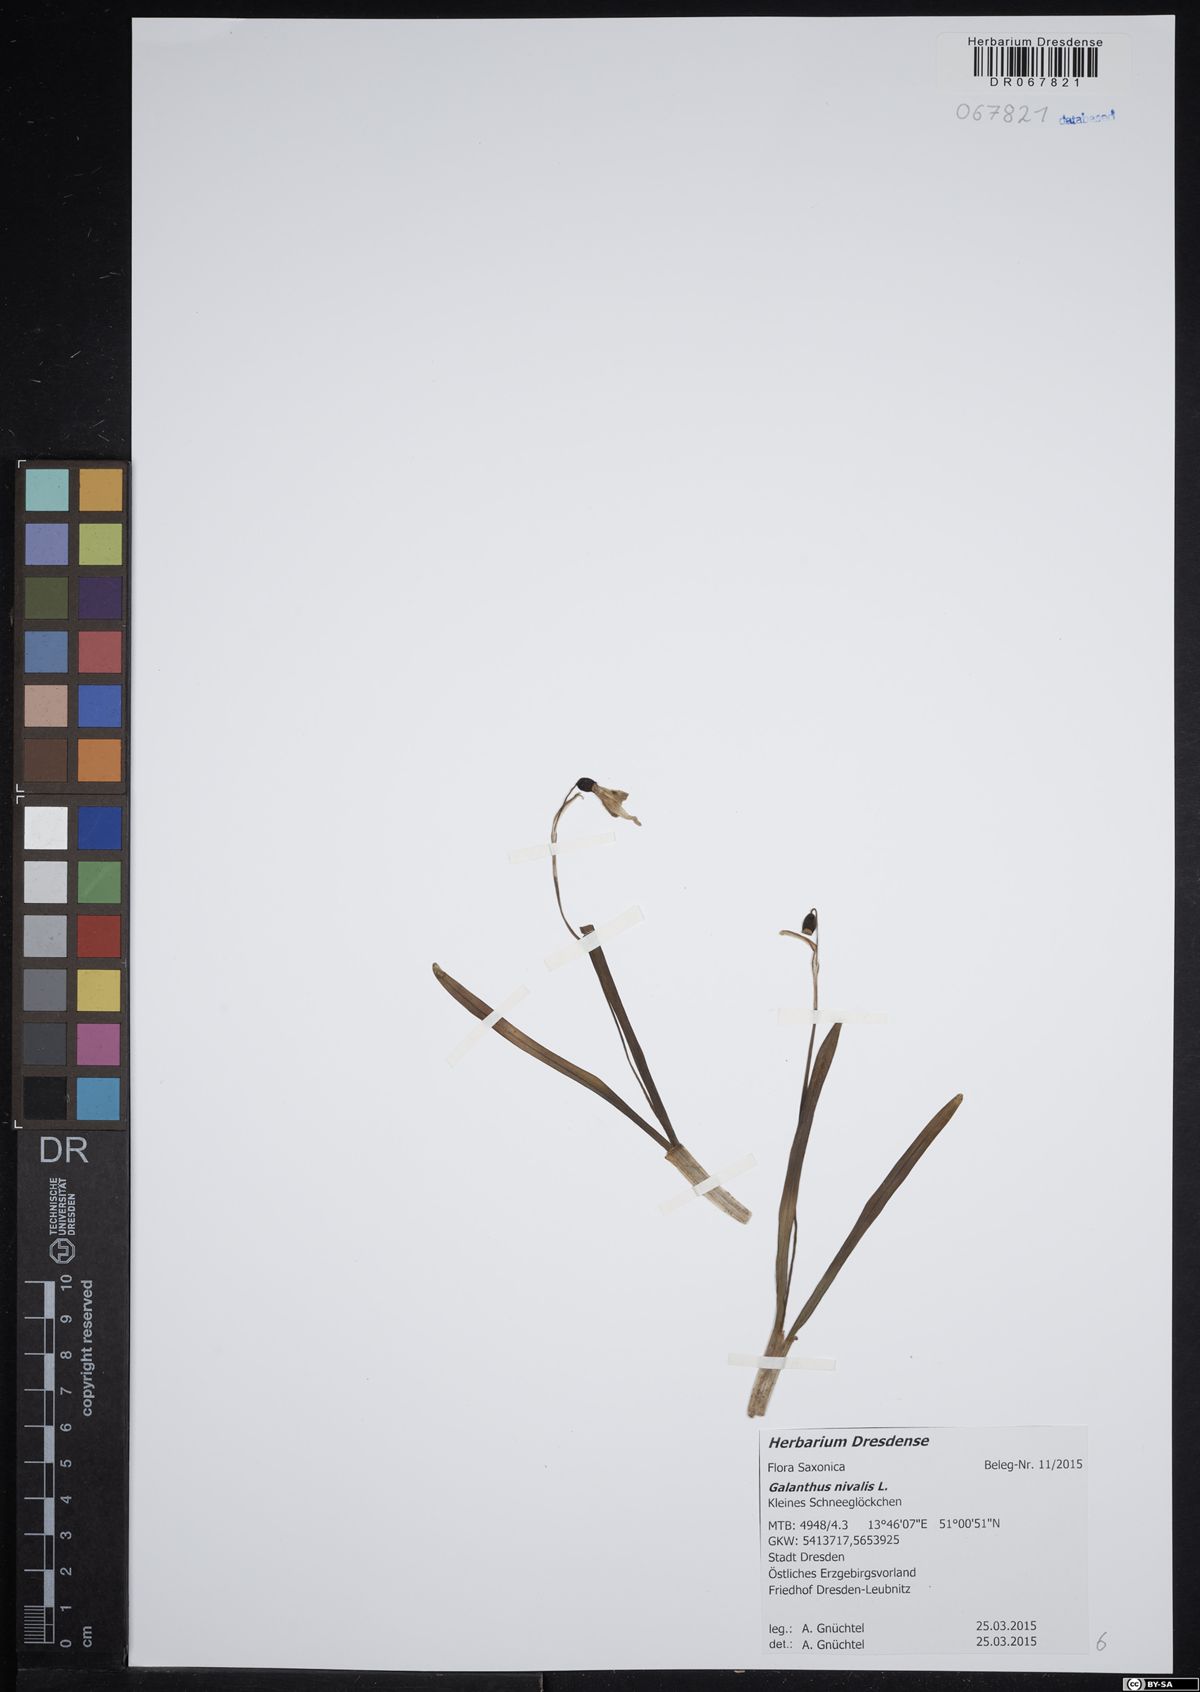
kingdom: Plantae
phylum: Tracheophyta
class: Liliopsida
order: Asparagales
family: Amaryllidaceae
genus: Galanthus
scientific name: Galanthus nivalis
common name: Snowdrop
